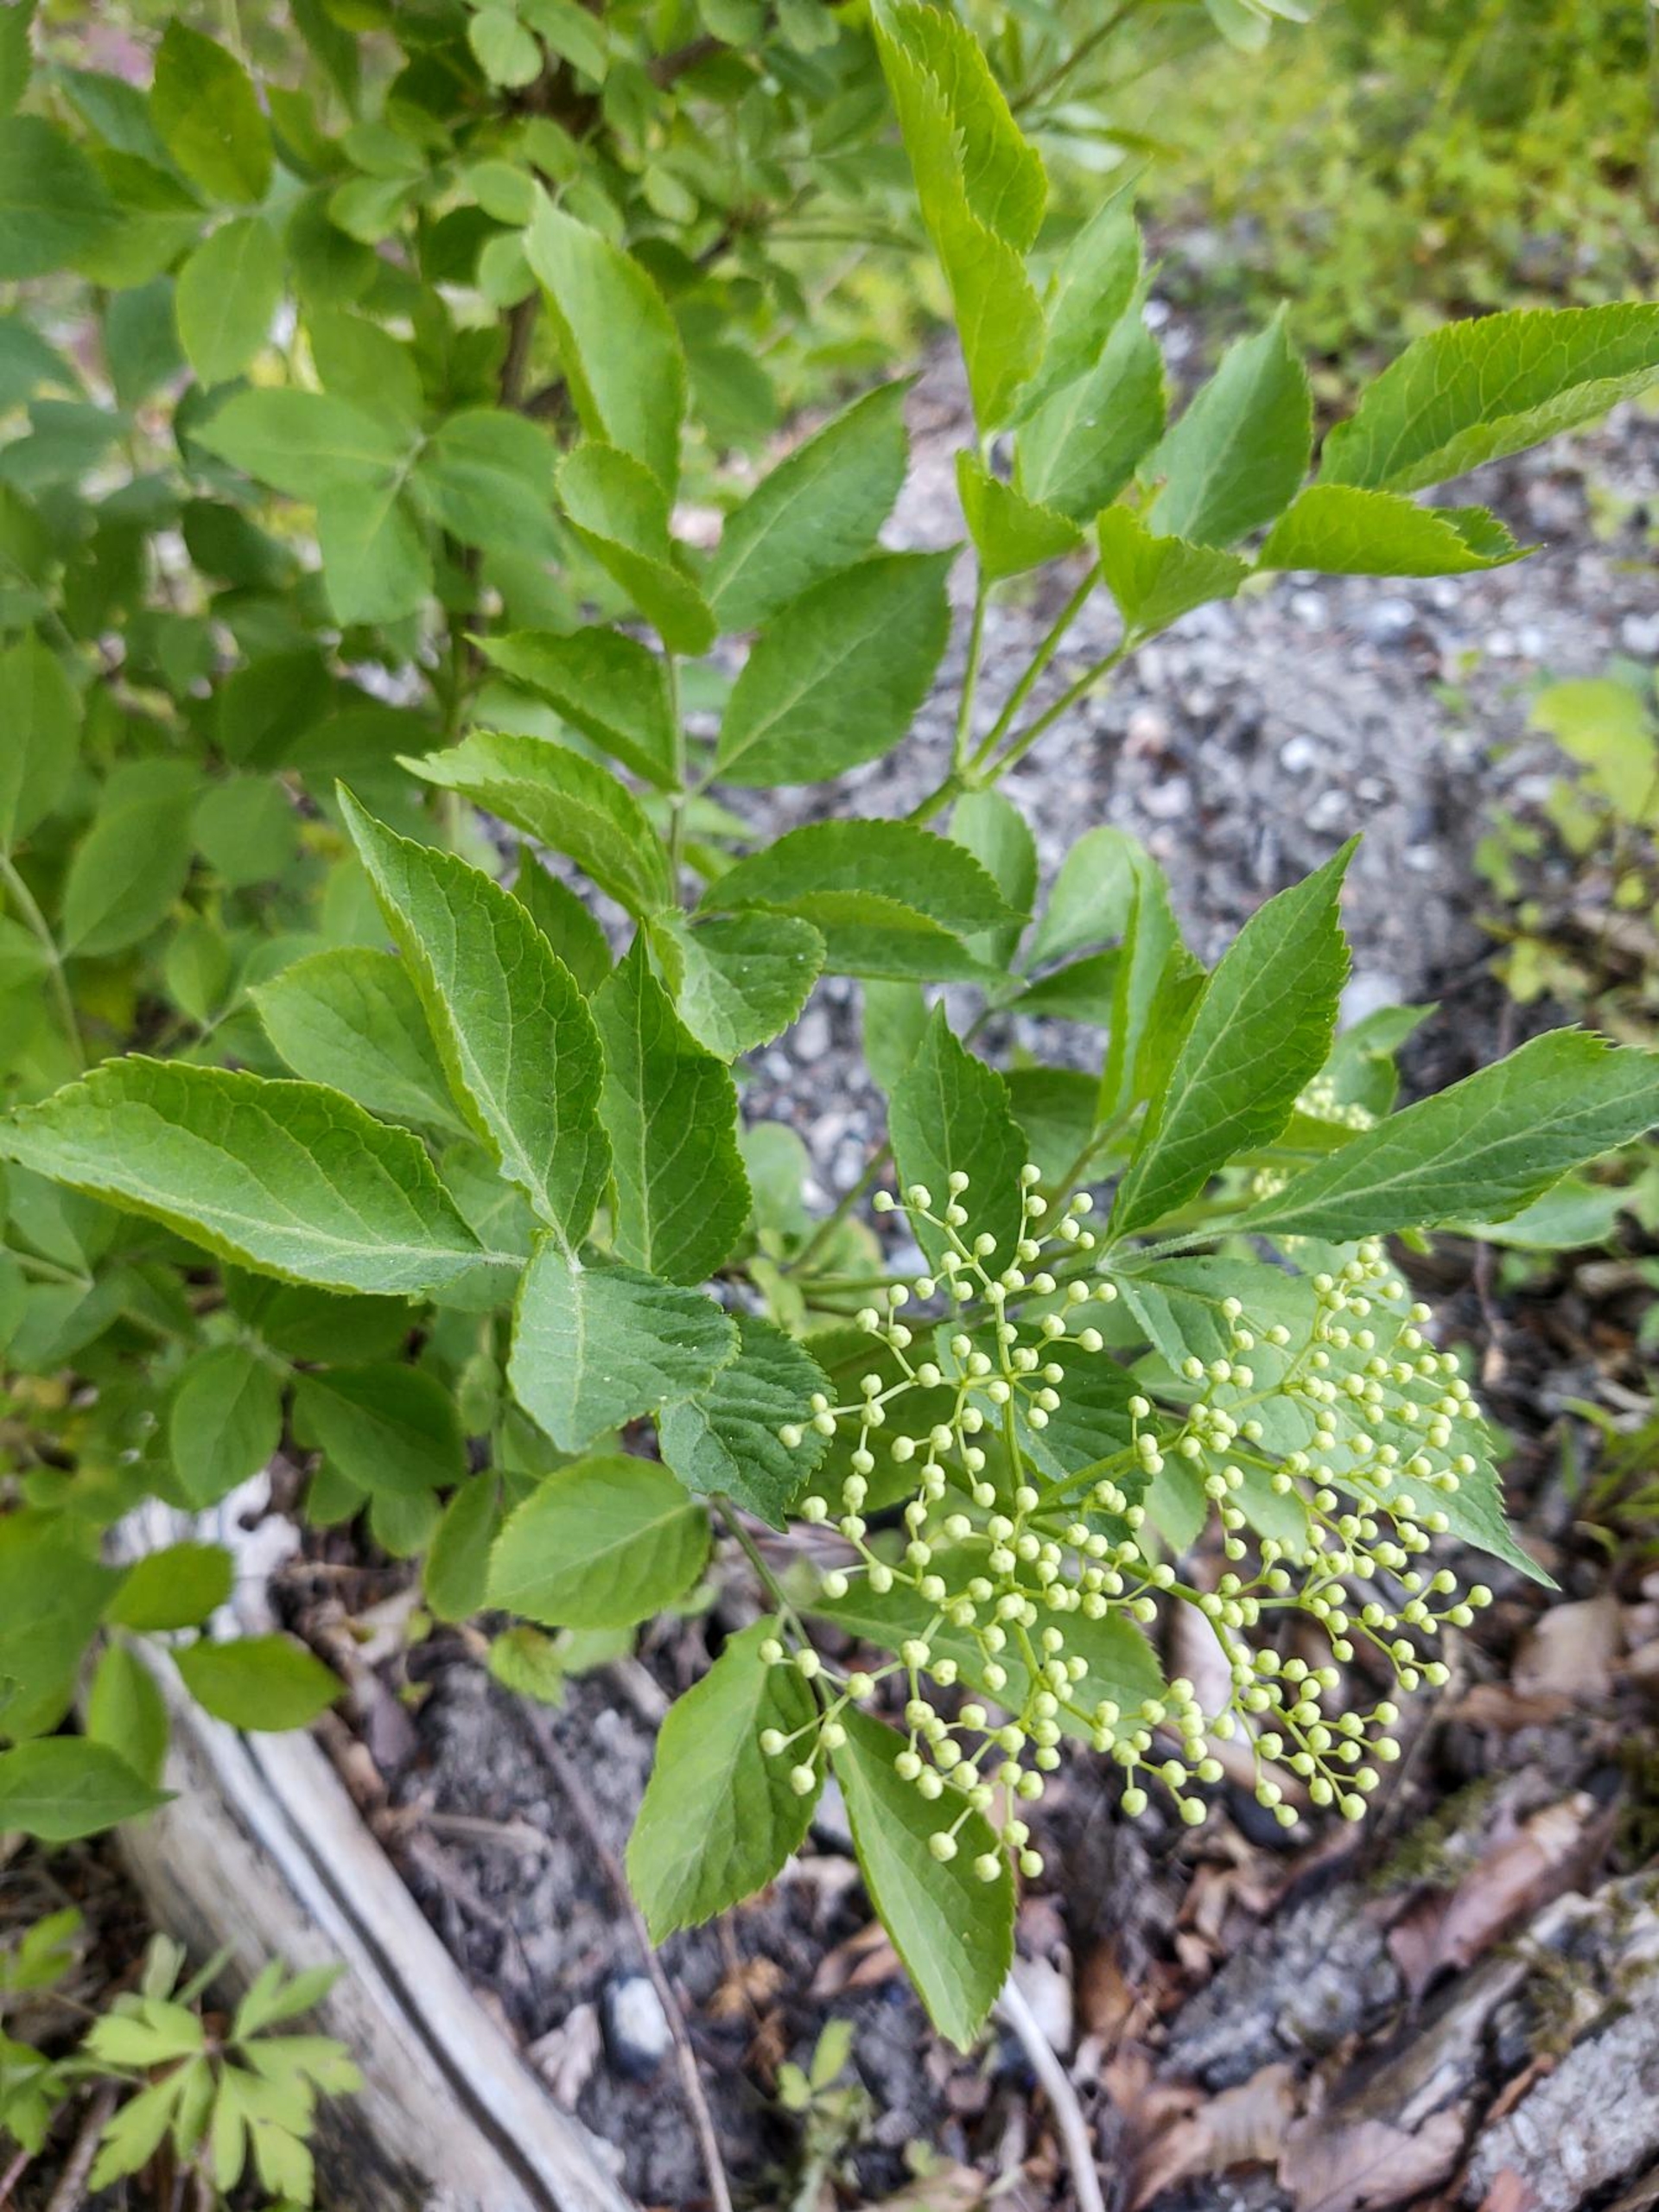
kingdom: Plantae
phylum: Tracheophyta
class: Magnoliopsida
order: Dipsacales
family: Viburnaceae
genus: Sambucus
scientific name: Sambucus nigra
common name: Almindelig hyld
